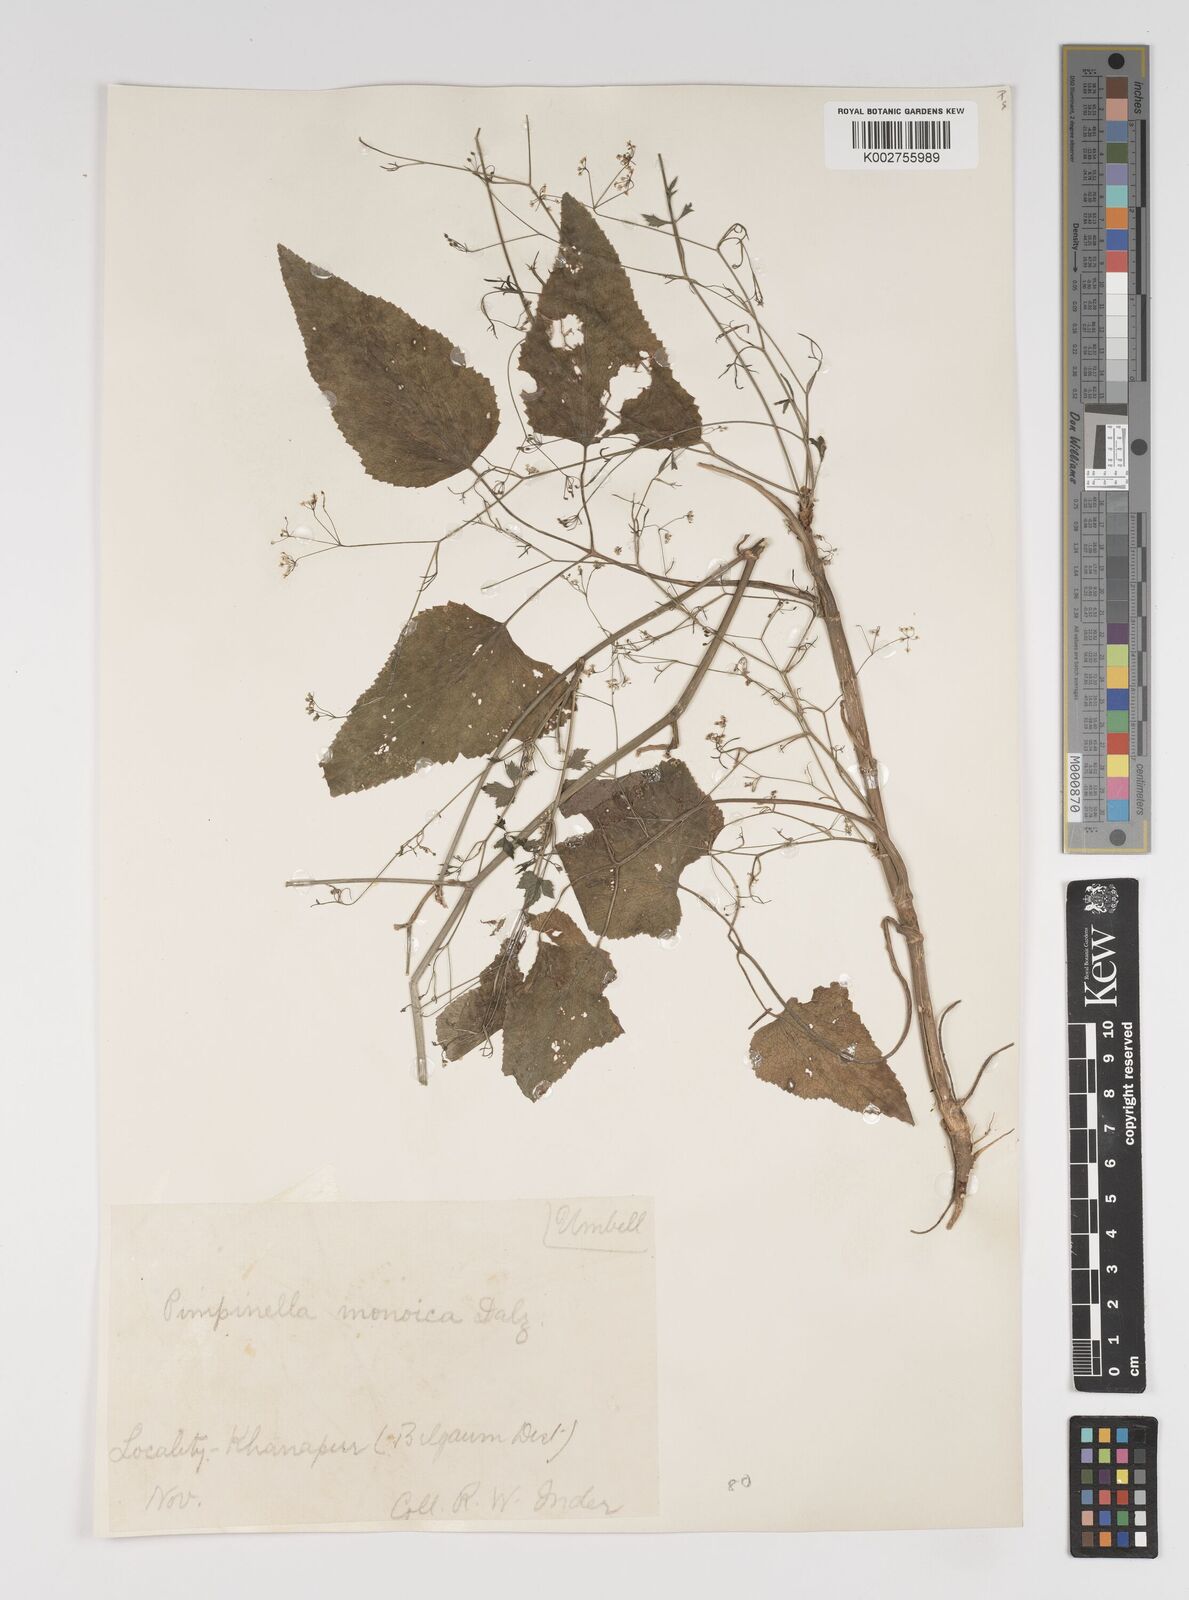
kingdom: Plantae
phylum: Tracheophyta
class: Magnoliopsida
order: Apiales
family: Apiaceae
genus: Pimpinella
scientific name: Pimpinella wallichiana
